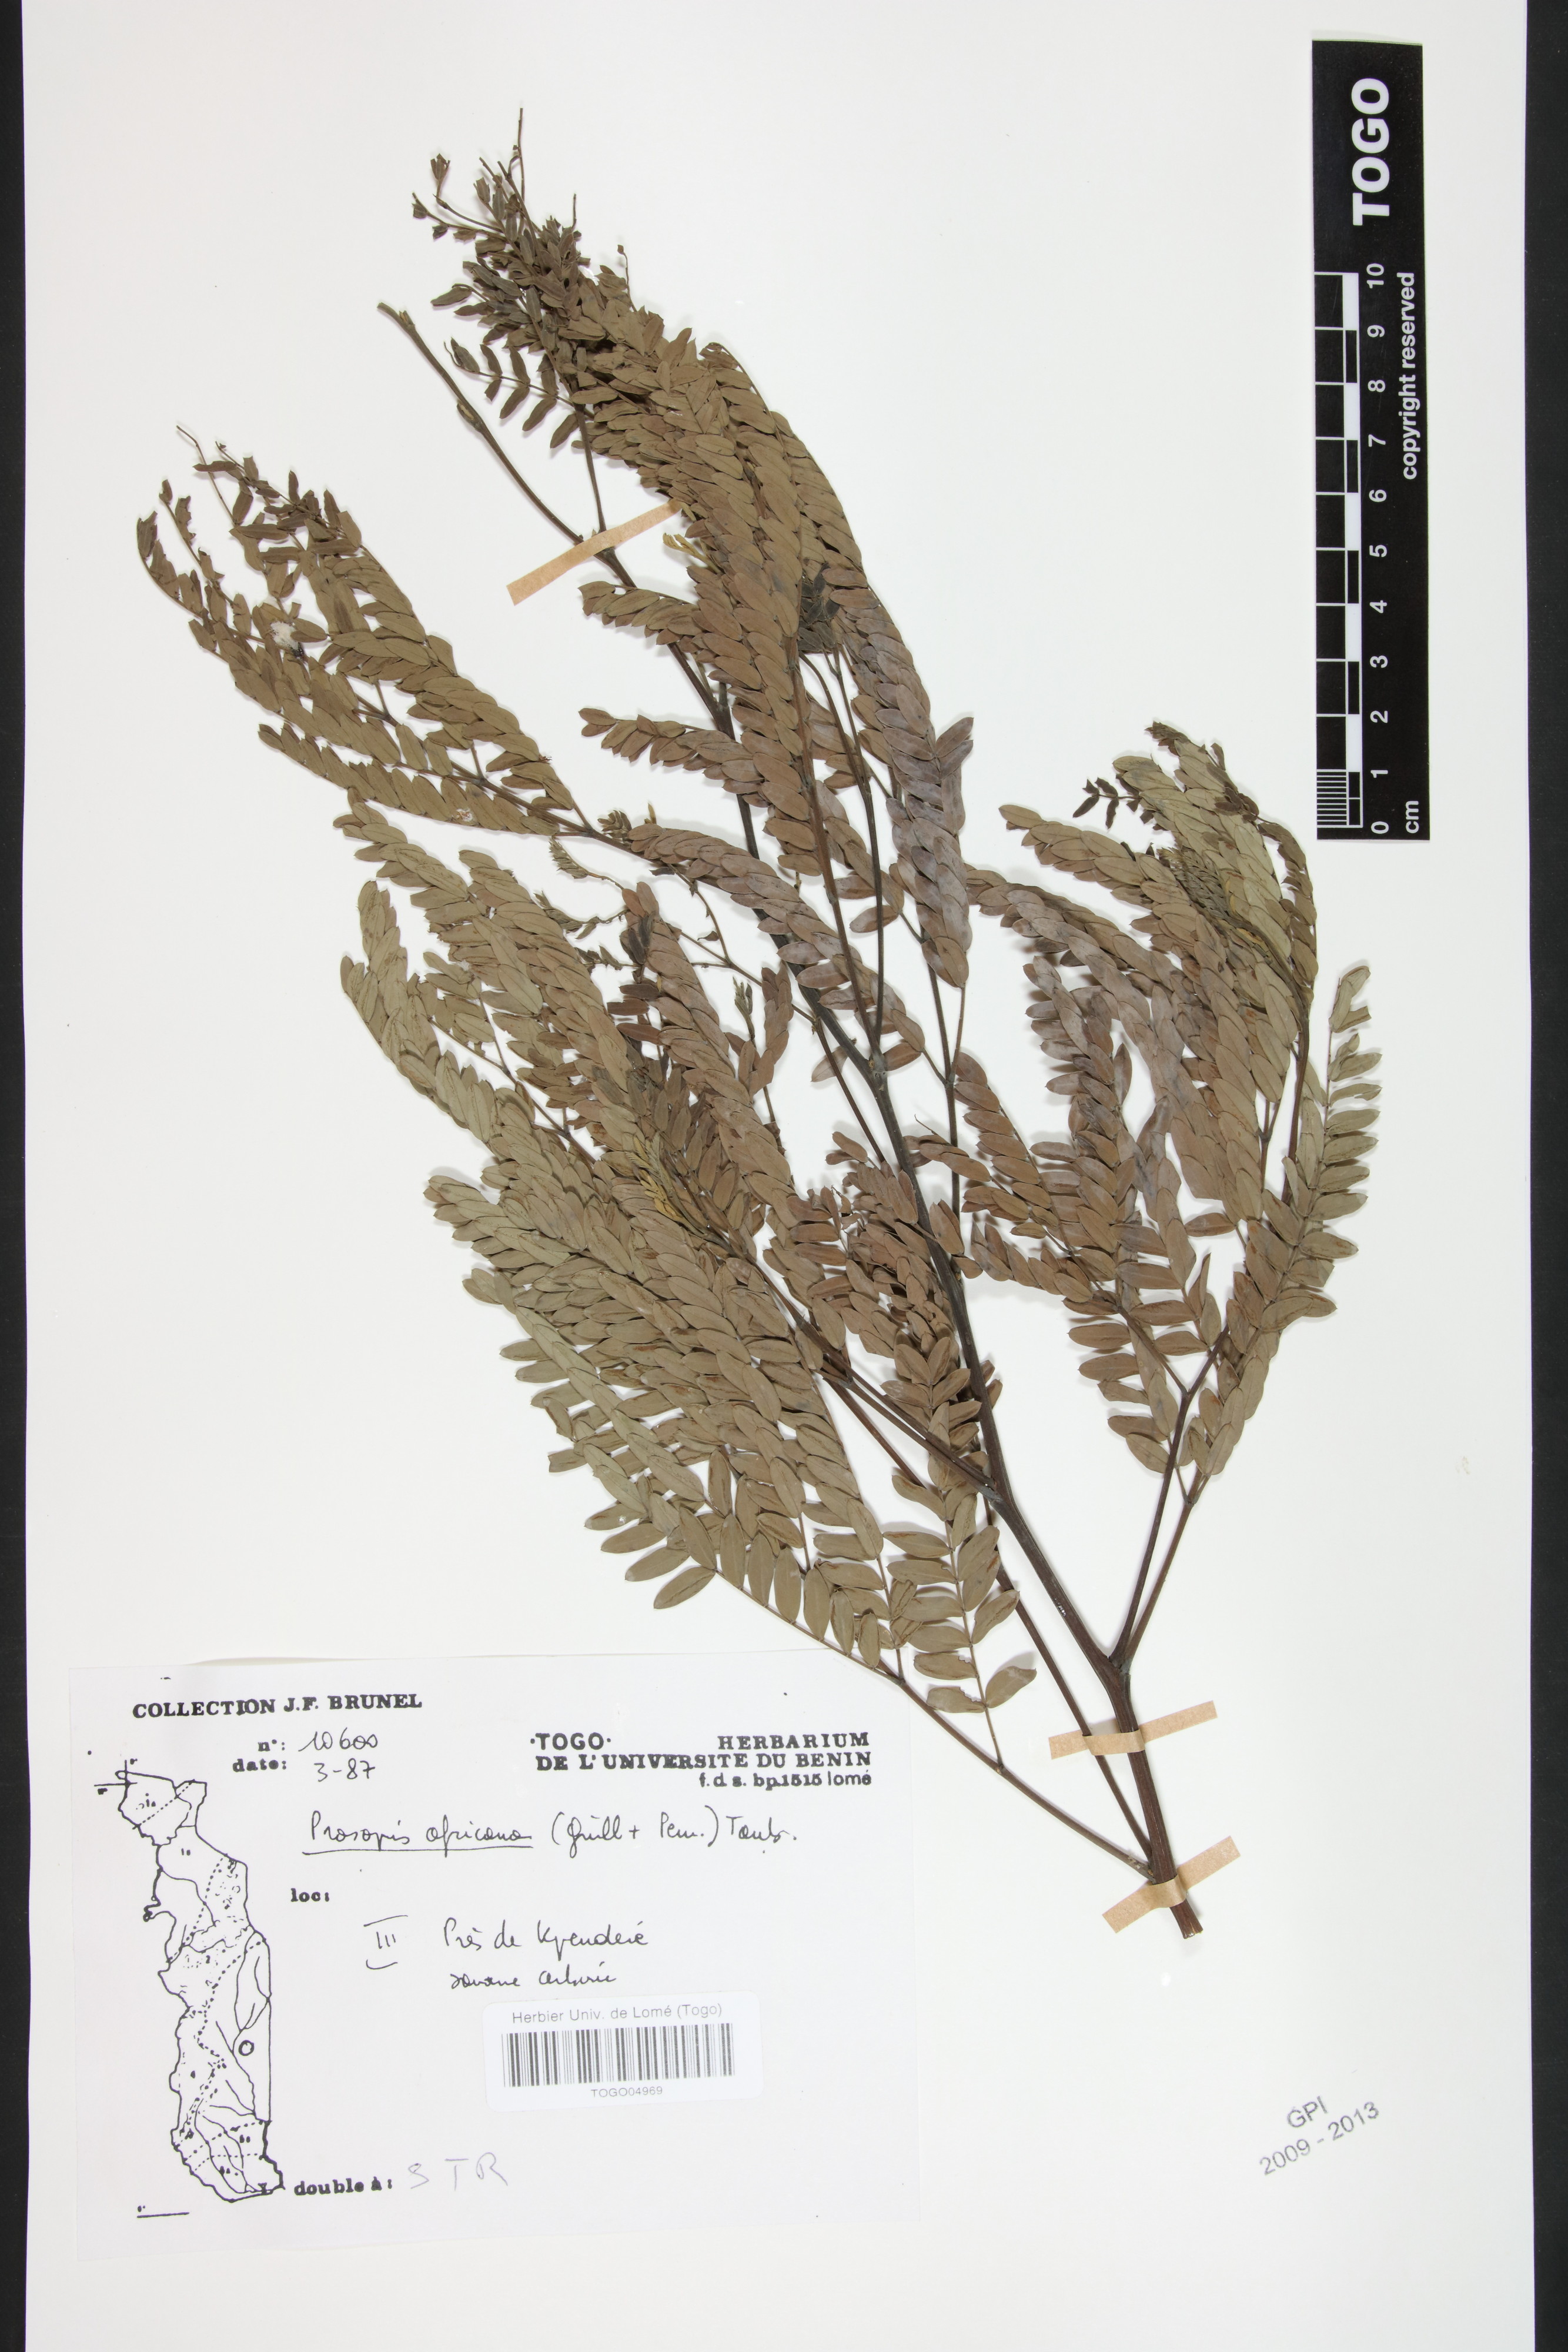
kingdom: Plantae
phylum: Tracheophyta
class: Magnoliopsida
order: Fabales
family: Fabaceae
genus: Prosopis
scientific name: Prosopis africana
